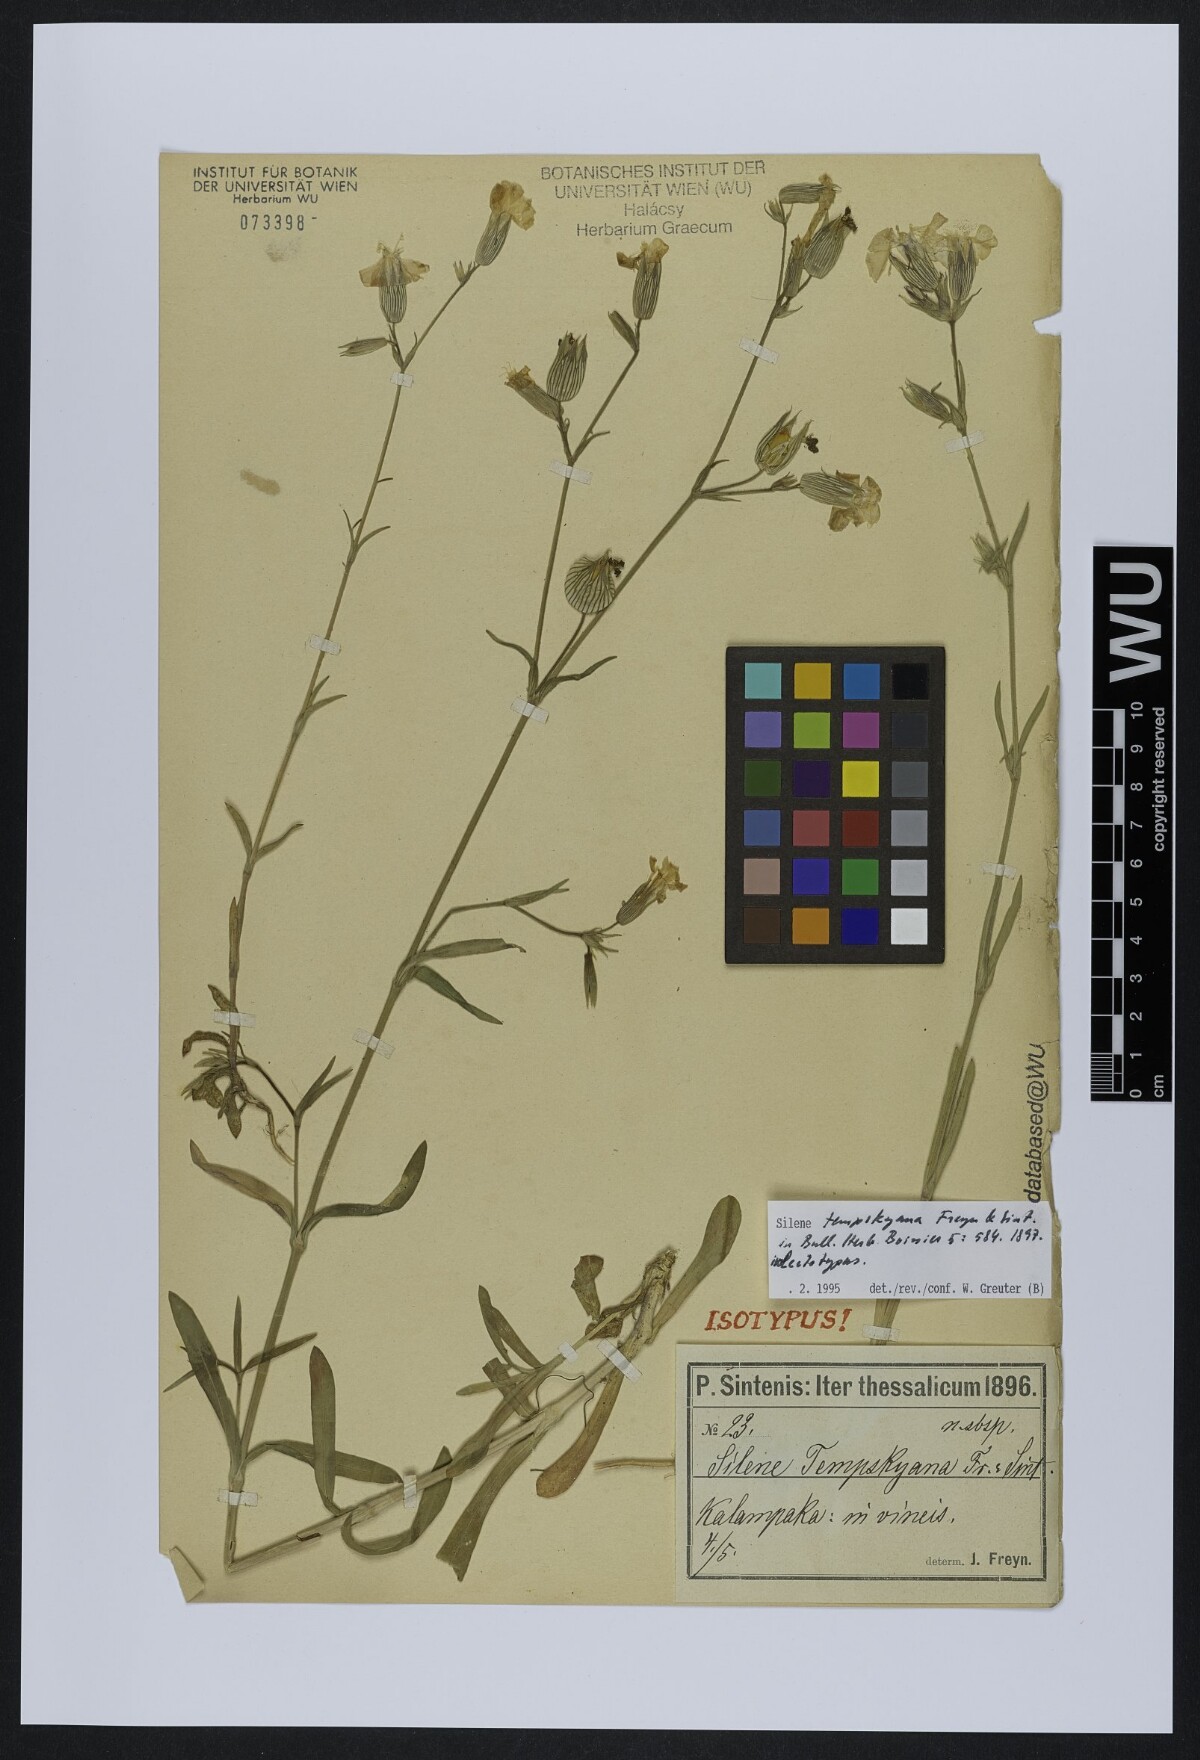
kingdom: Plantae
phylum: Tracheophyta
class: Magnoliopsida
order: Caryophyllales
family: Caryophyllaceae
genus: Silene
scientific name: Silene subconica
